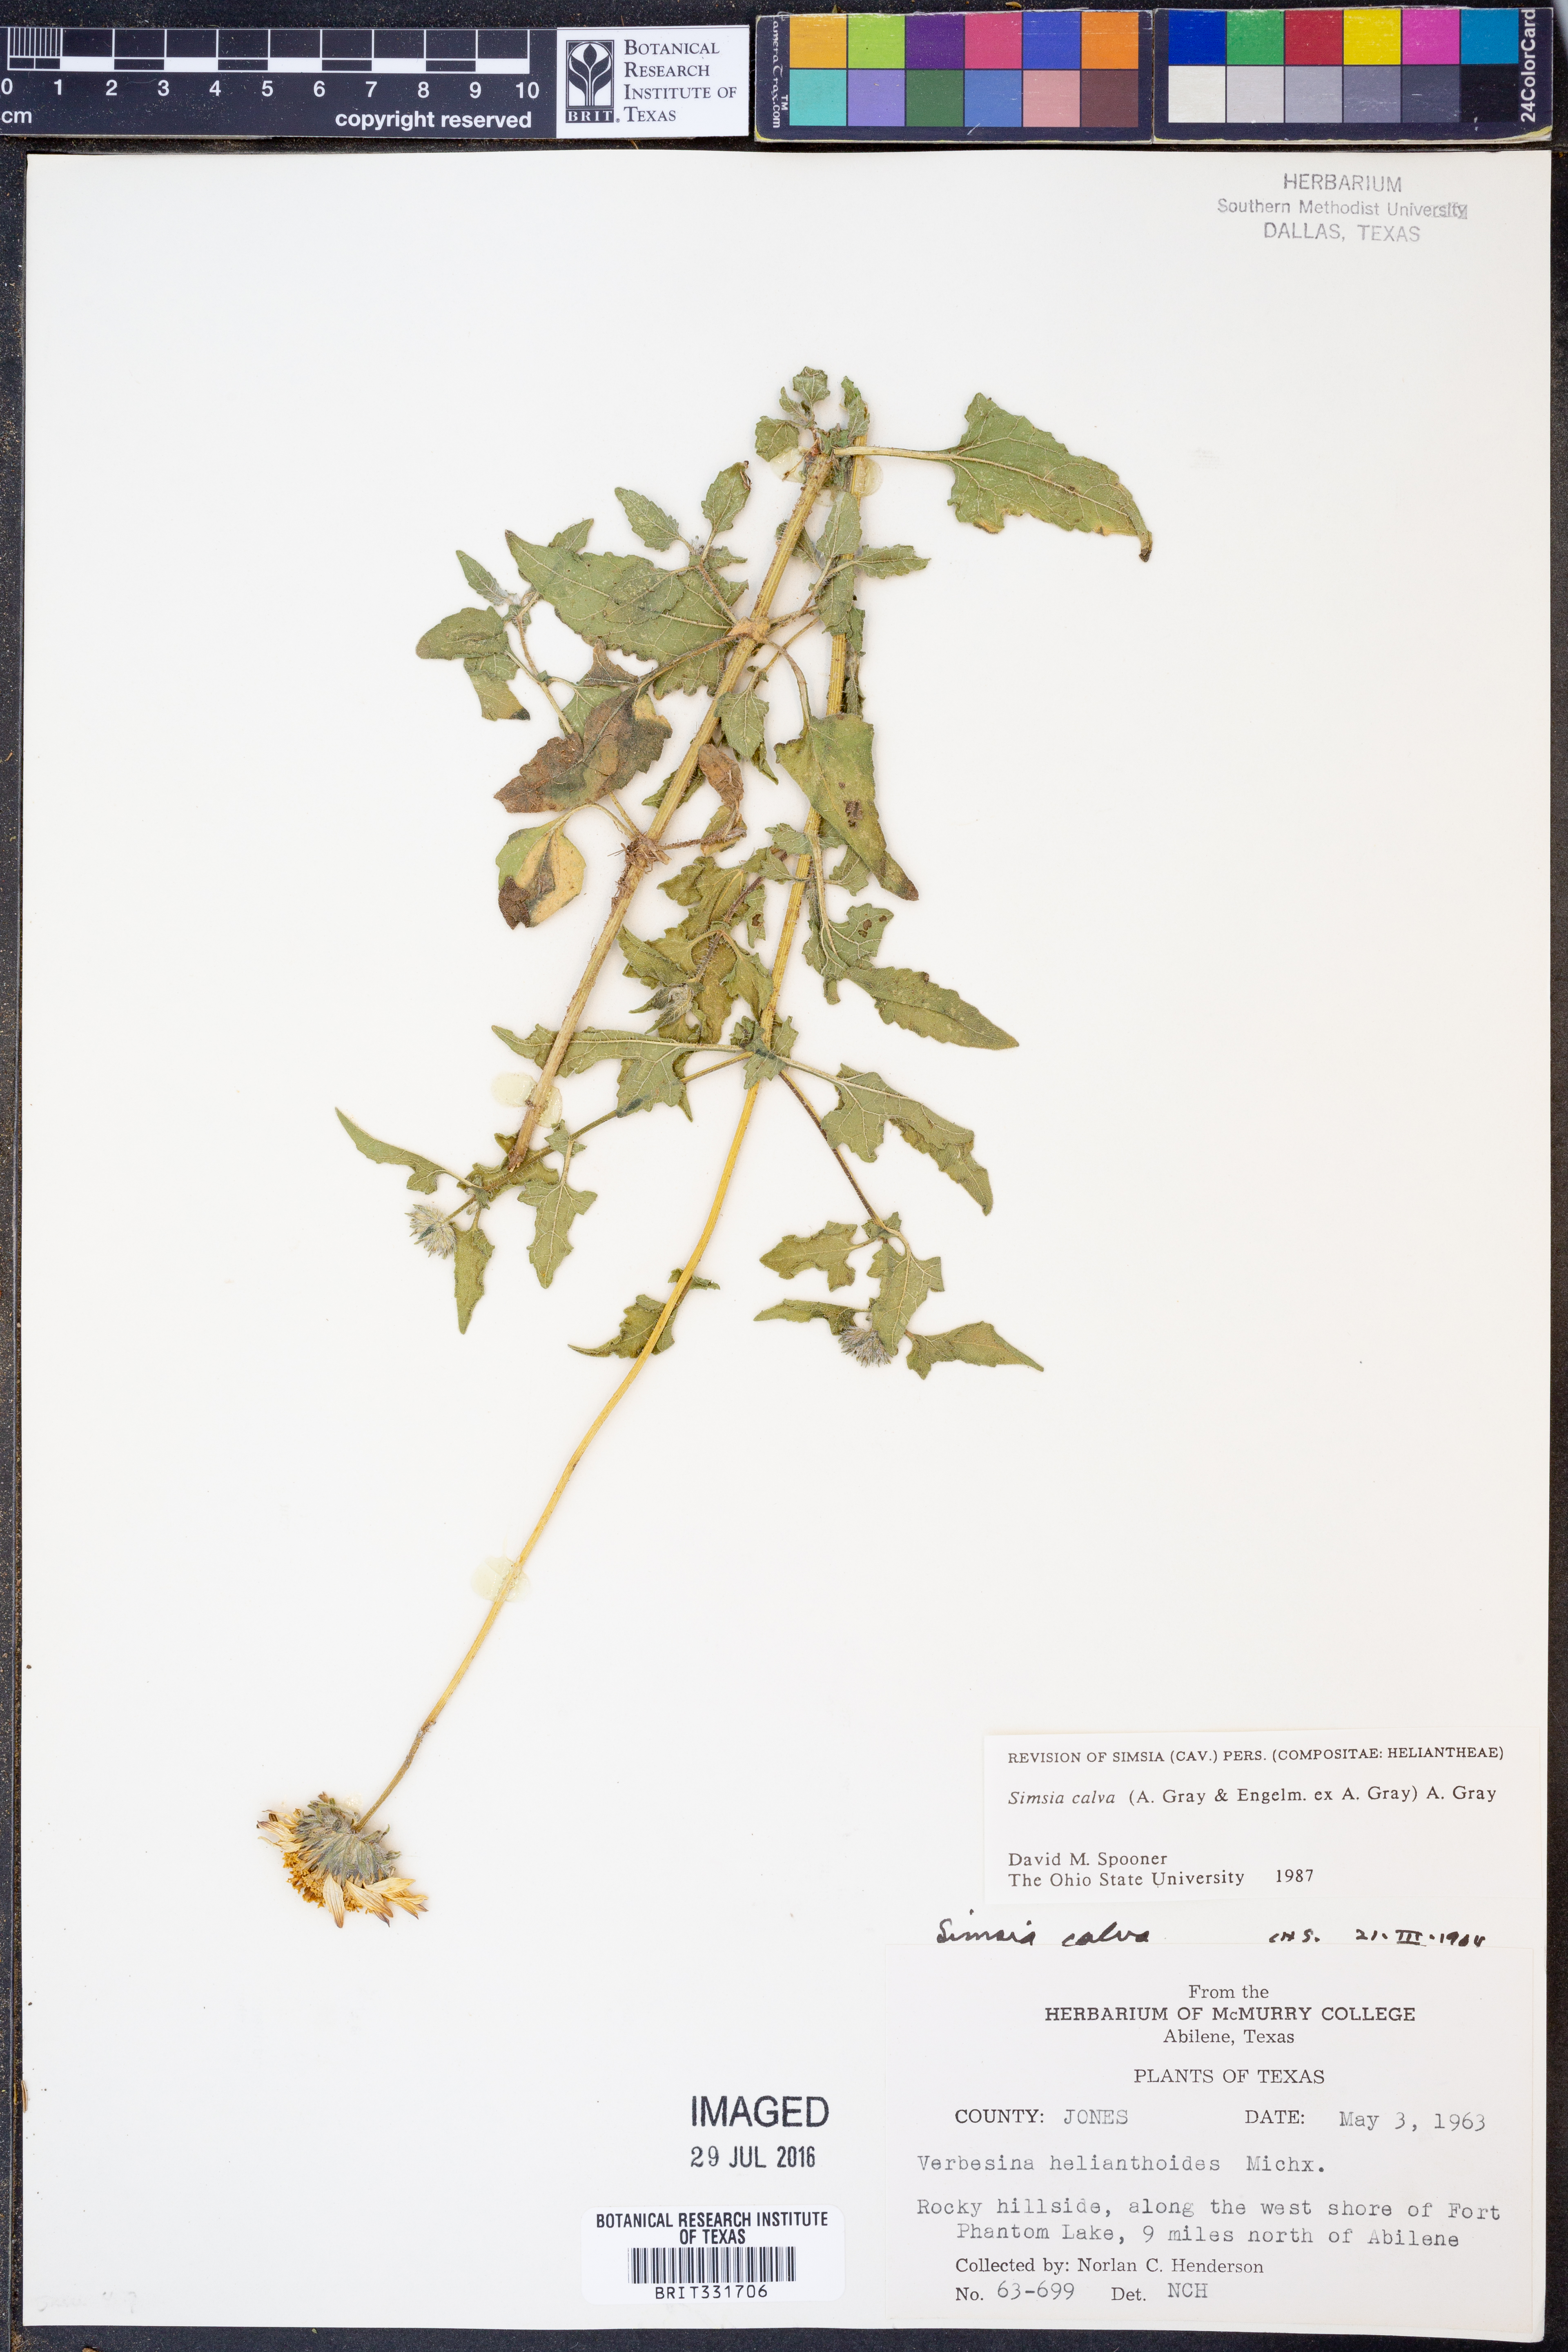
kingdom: Plantae
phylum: Tracheophyta
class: Magnoliopsida
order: Asterales
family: Asteraceae
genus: Simsia
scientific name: Simsia calva
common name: Awnless bush-sunflower
